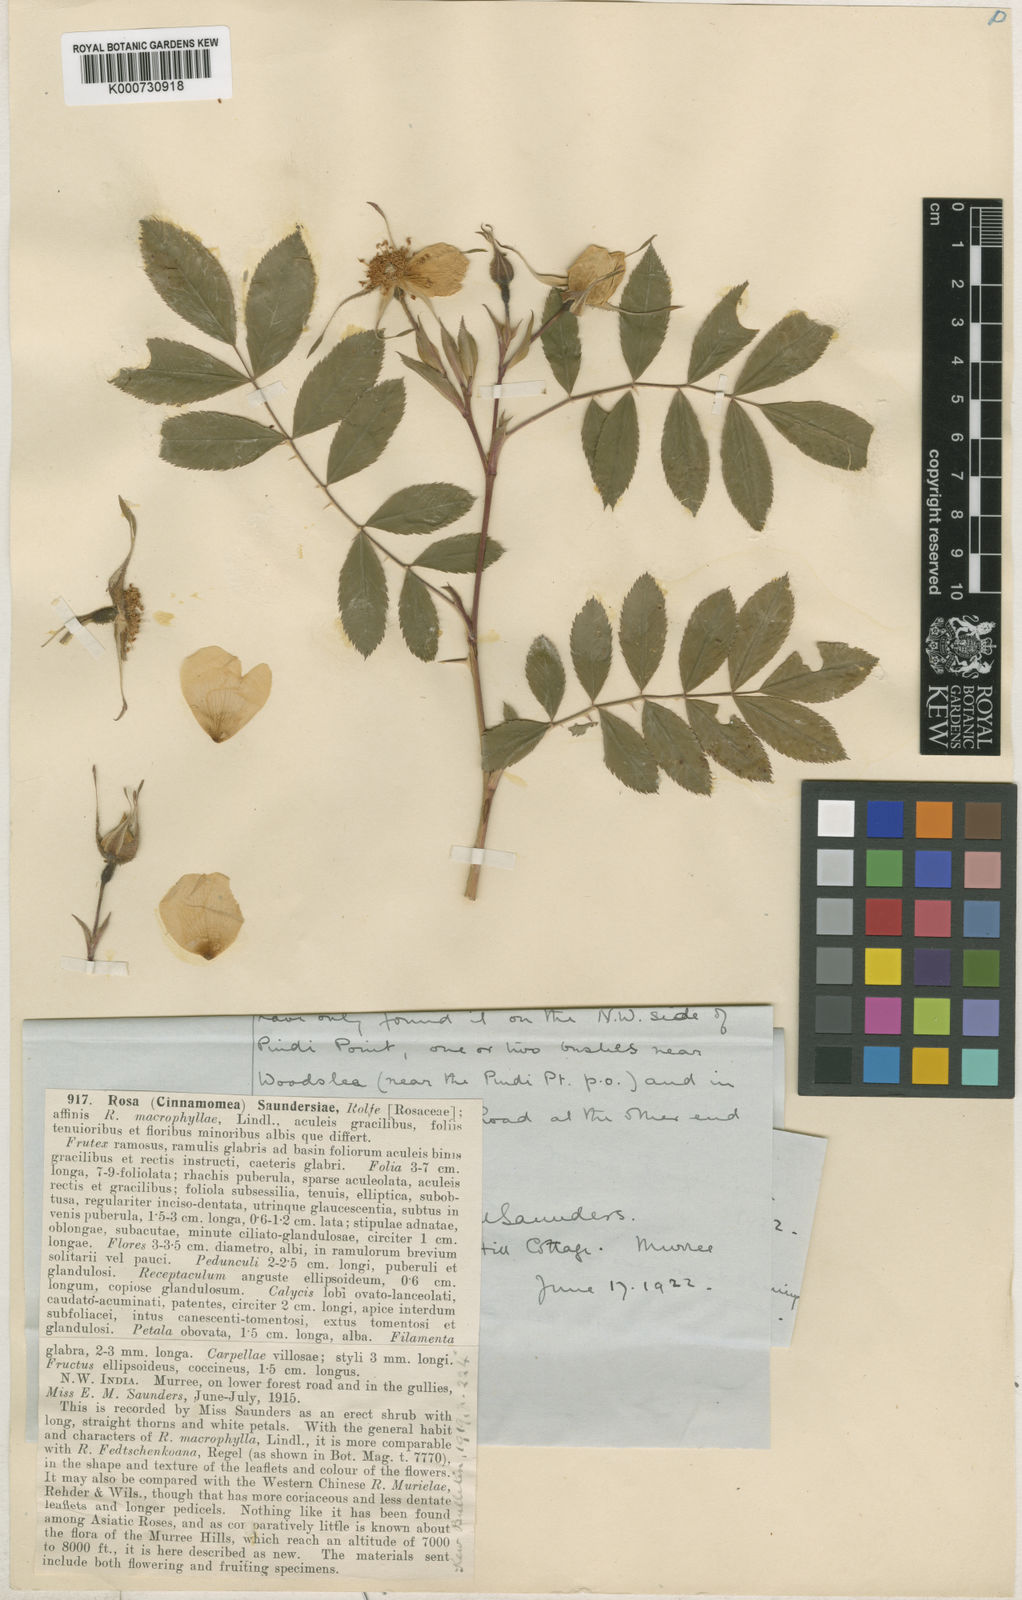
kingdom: Plantae
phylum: Tracheophyta
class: Magnoliopsida
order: Rosales
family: Rosaceae
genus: Rosa
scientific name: Rosa saundersiae
